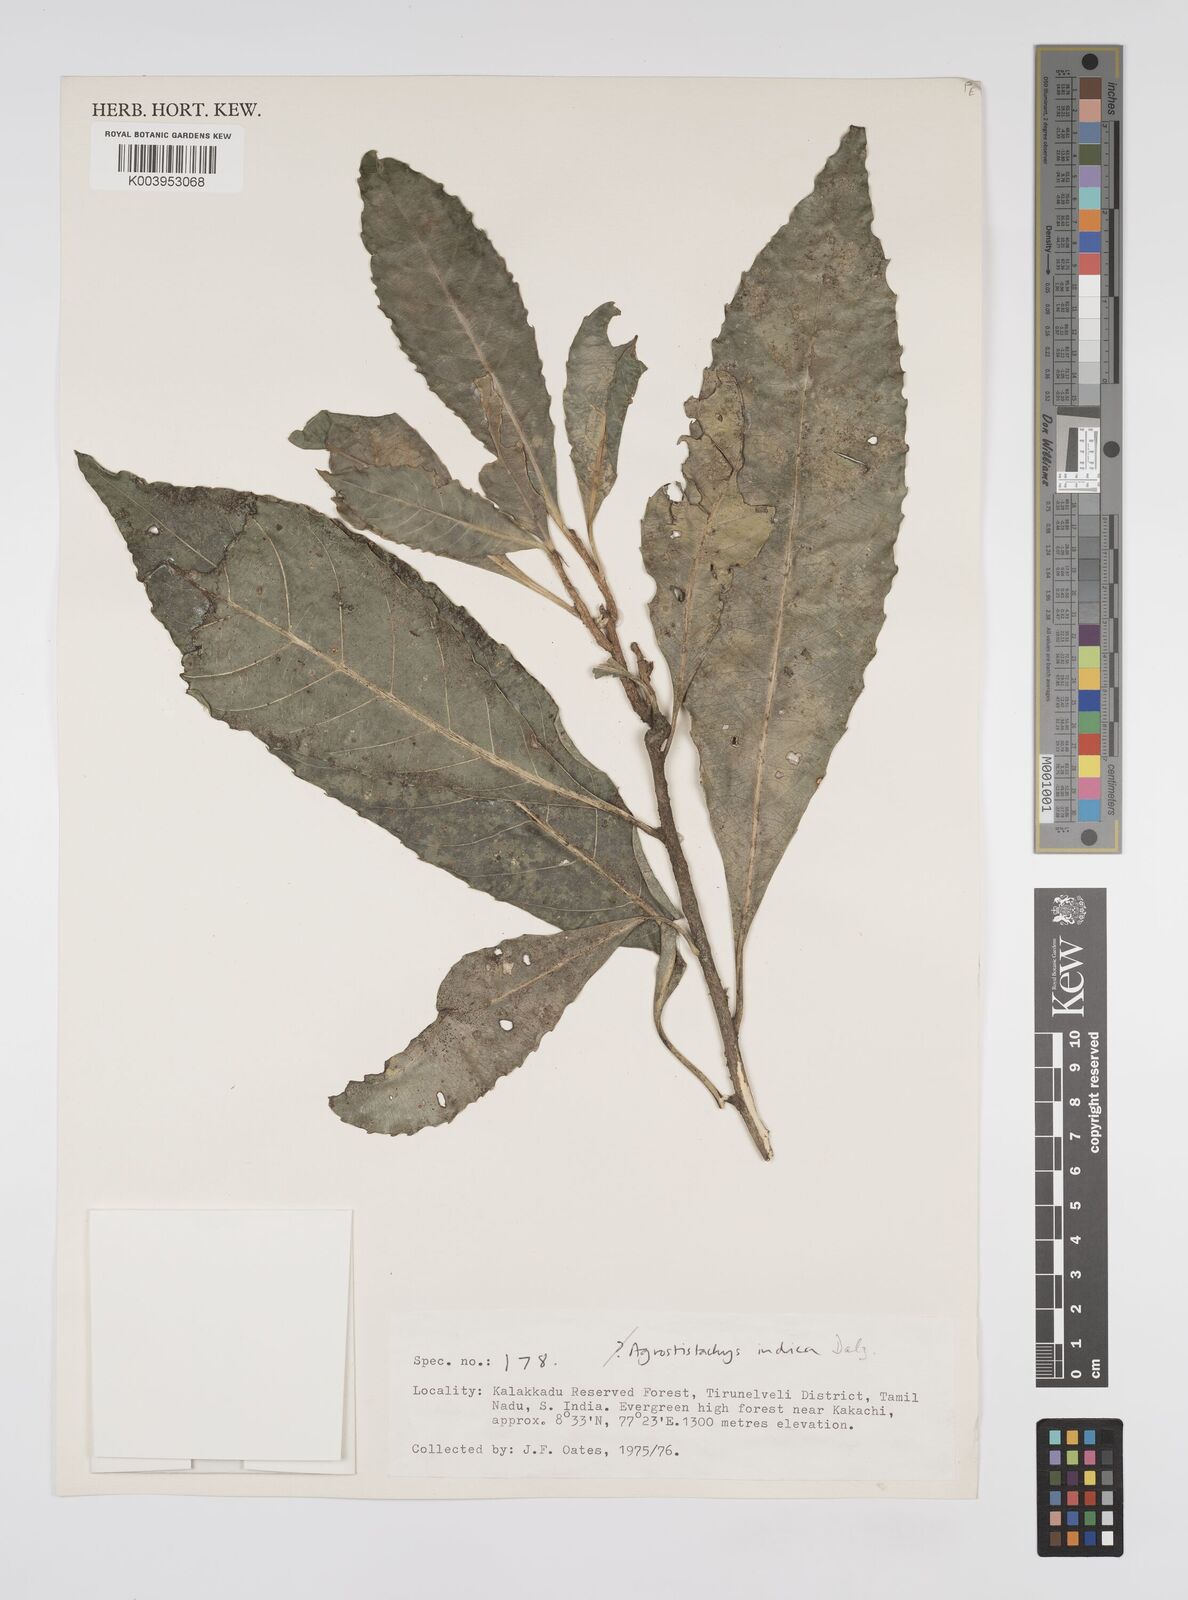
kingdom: Plantae
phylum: Tracheophyta
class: Magnoliopsida
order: Malpighiales
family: Euphorbiaceae
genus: Agrostistachys
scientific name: Agrostistachys indica
